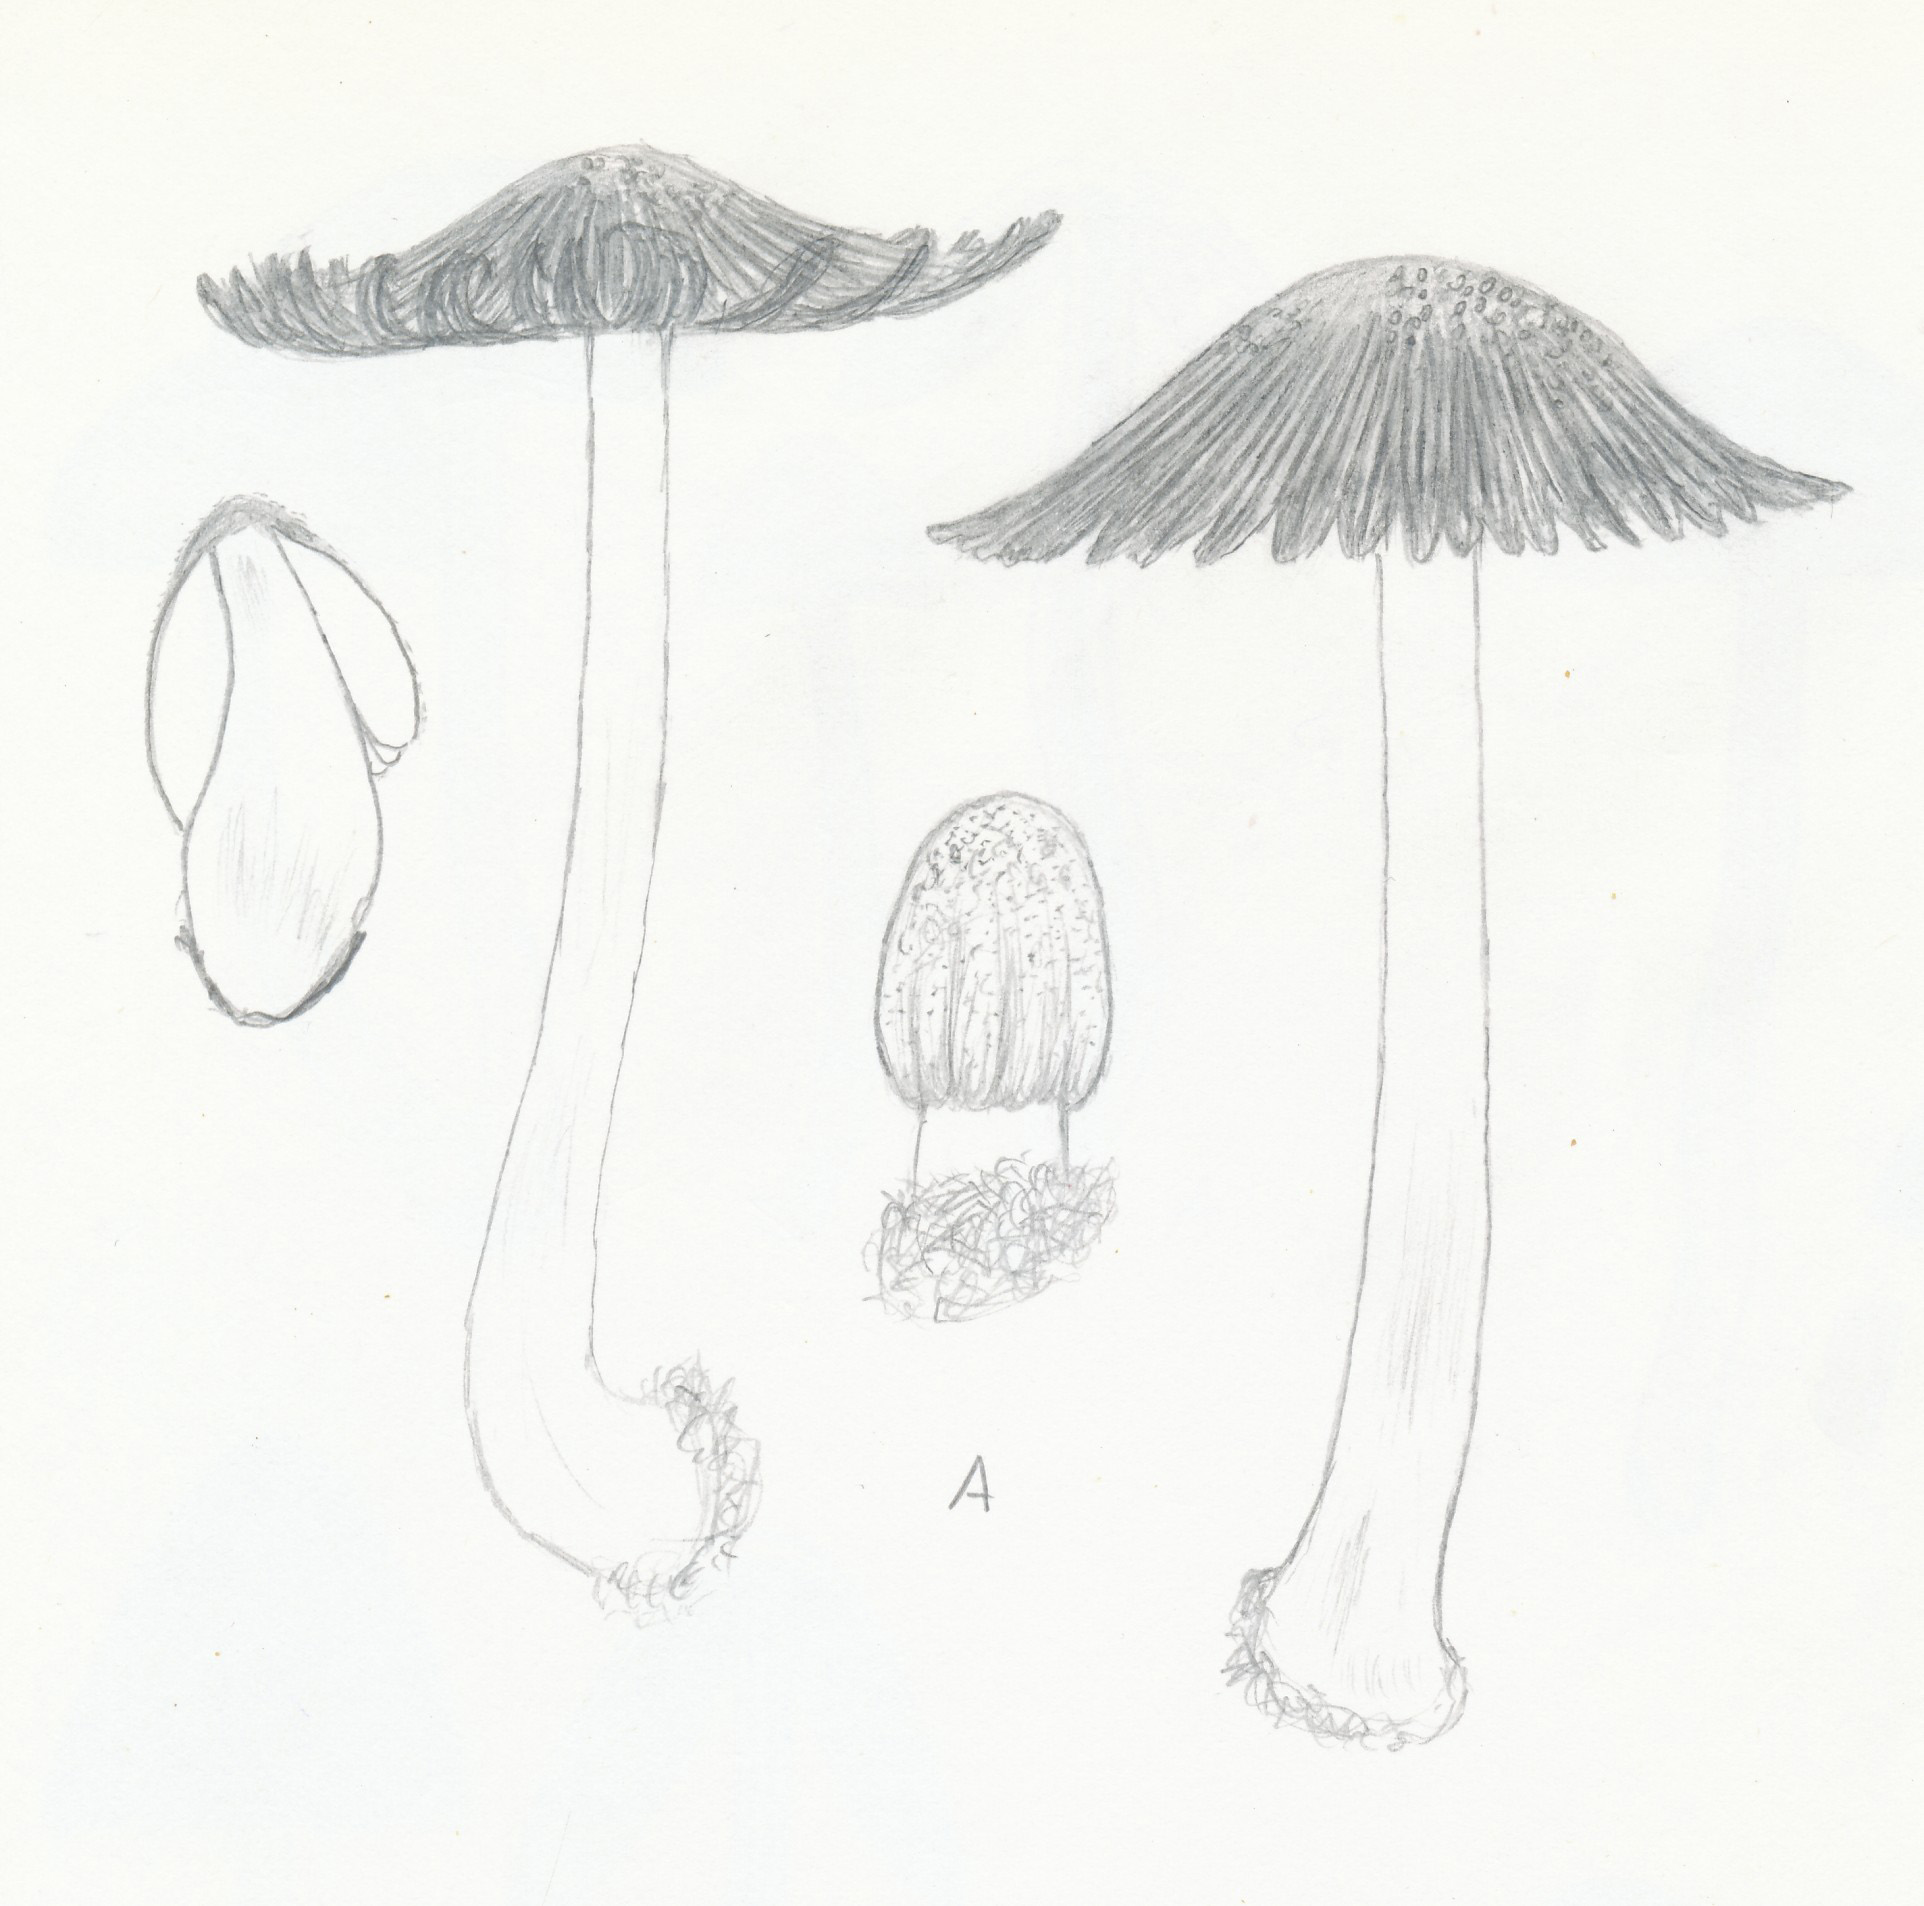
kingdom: Fungi
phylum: Basidiomycota
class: Agaricomycetes
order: Agaricales
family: Psathyrellaceae
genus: Coprinellus
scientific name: Coprinellus domesticus
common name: hus-blækhat
